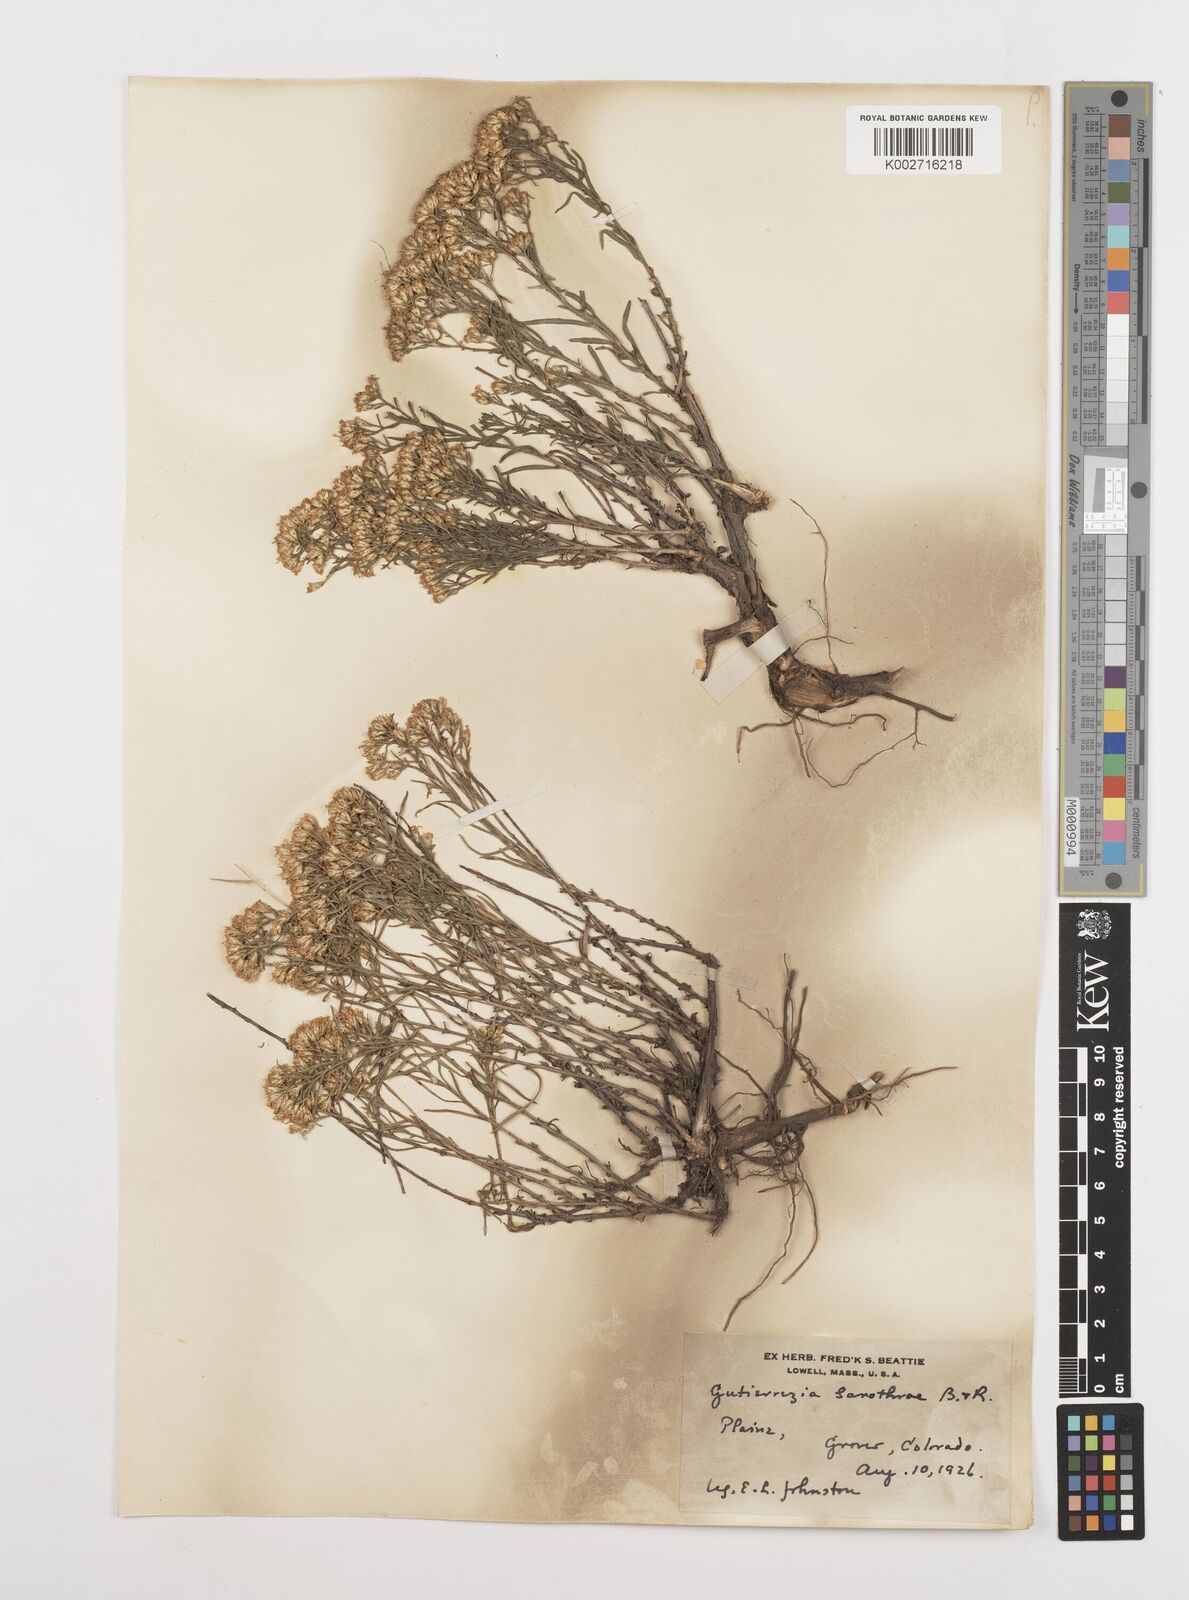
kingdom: Plantae
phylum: Tracheophyta
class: Magnoliopsida
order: Asterales
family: Asteraceae
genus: Gutierrezia
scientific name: Gutierrezia sarothrae
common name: Broom snakeweed
